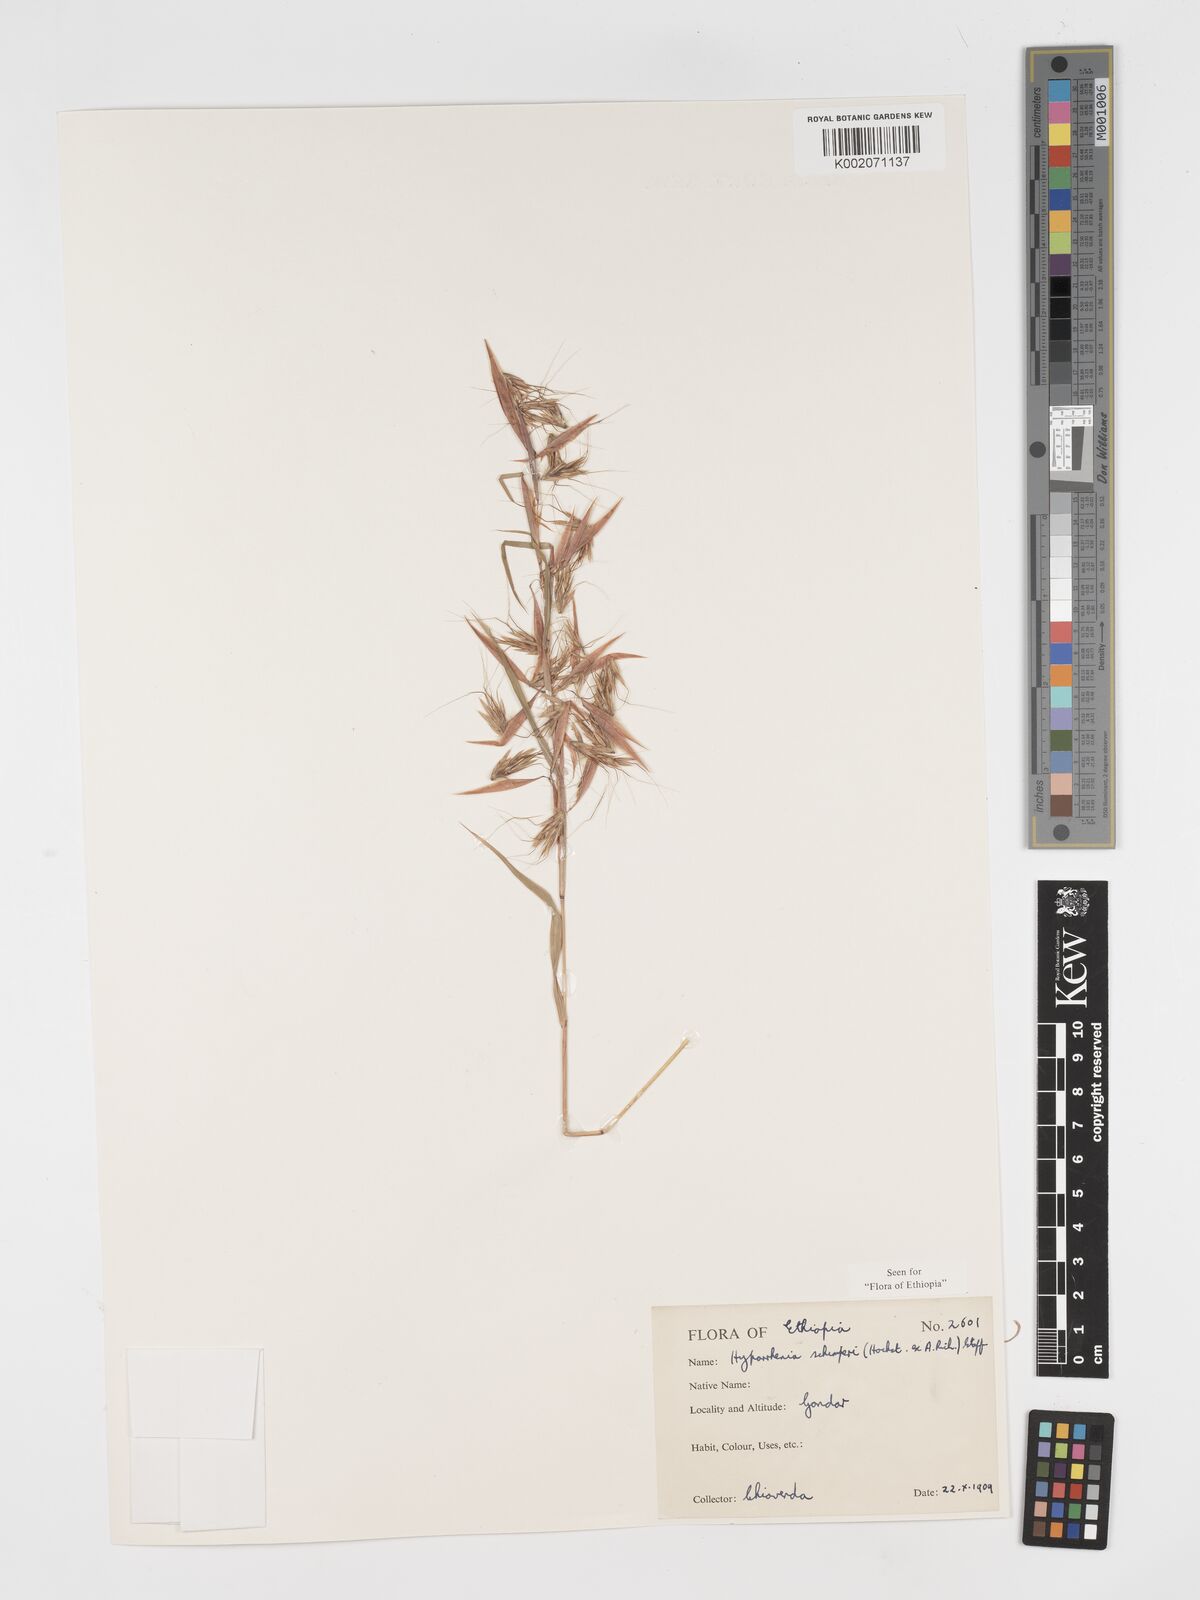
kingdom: Plantae
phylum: Tracheophyta
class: Liliopsida
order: Poales
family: Poaceae
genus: Hyparrhenia
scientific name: Hyparrhenia schimperi
